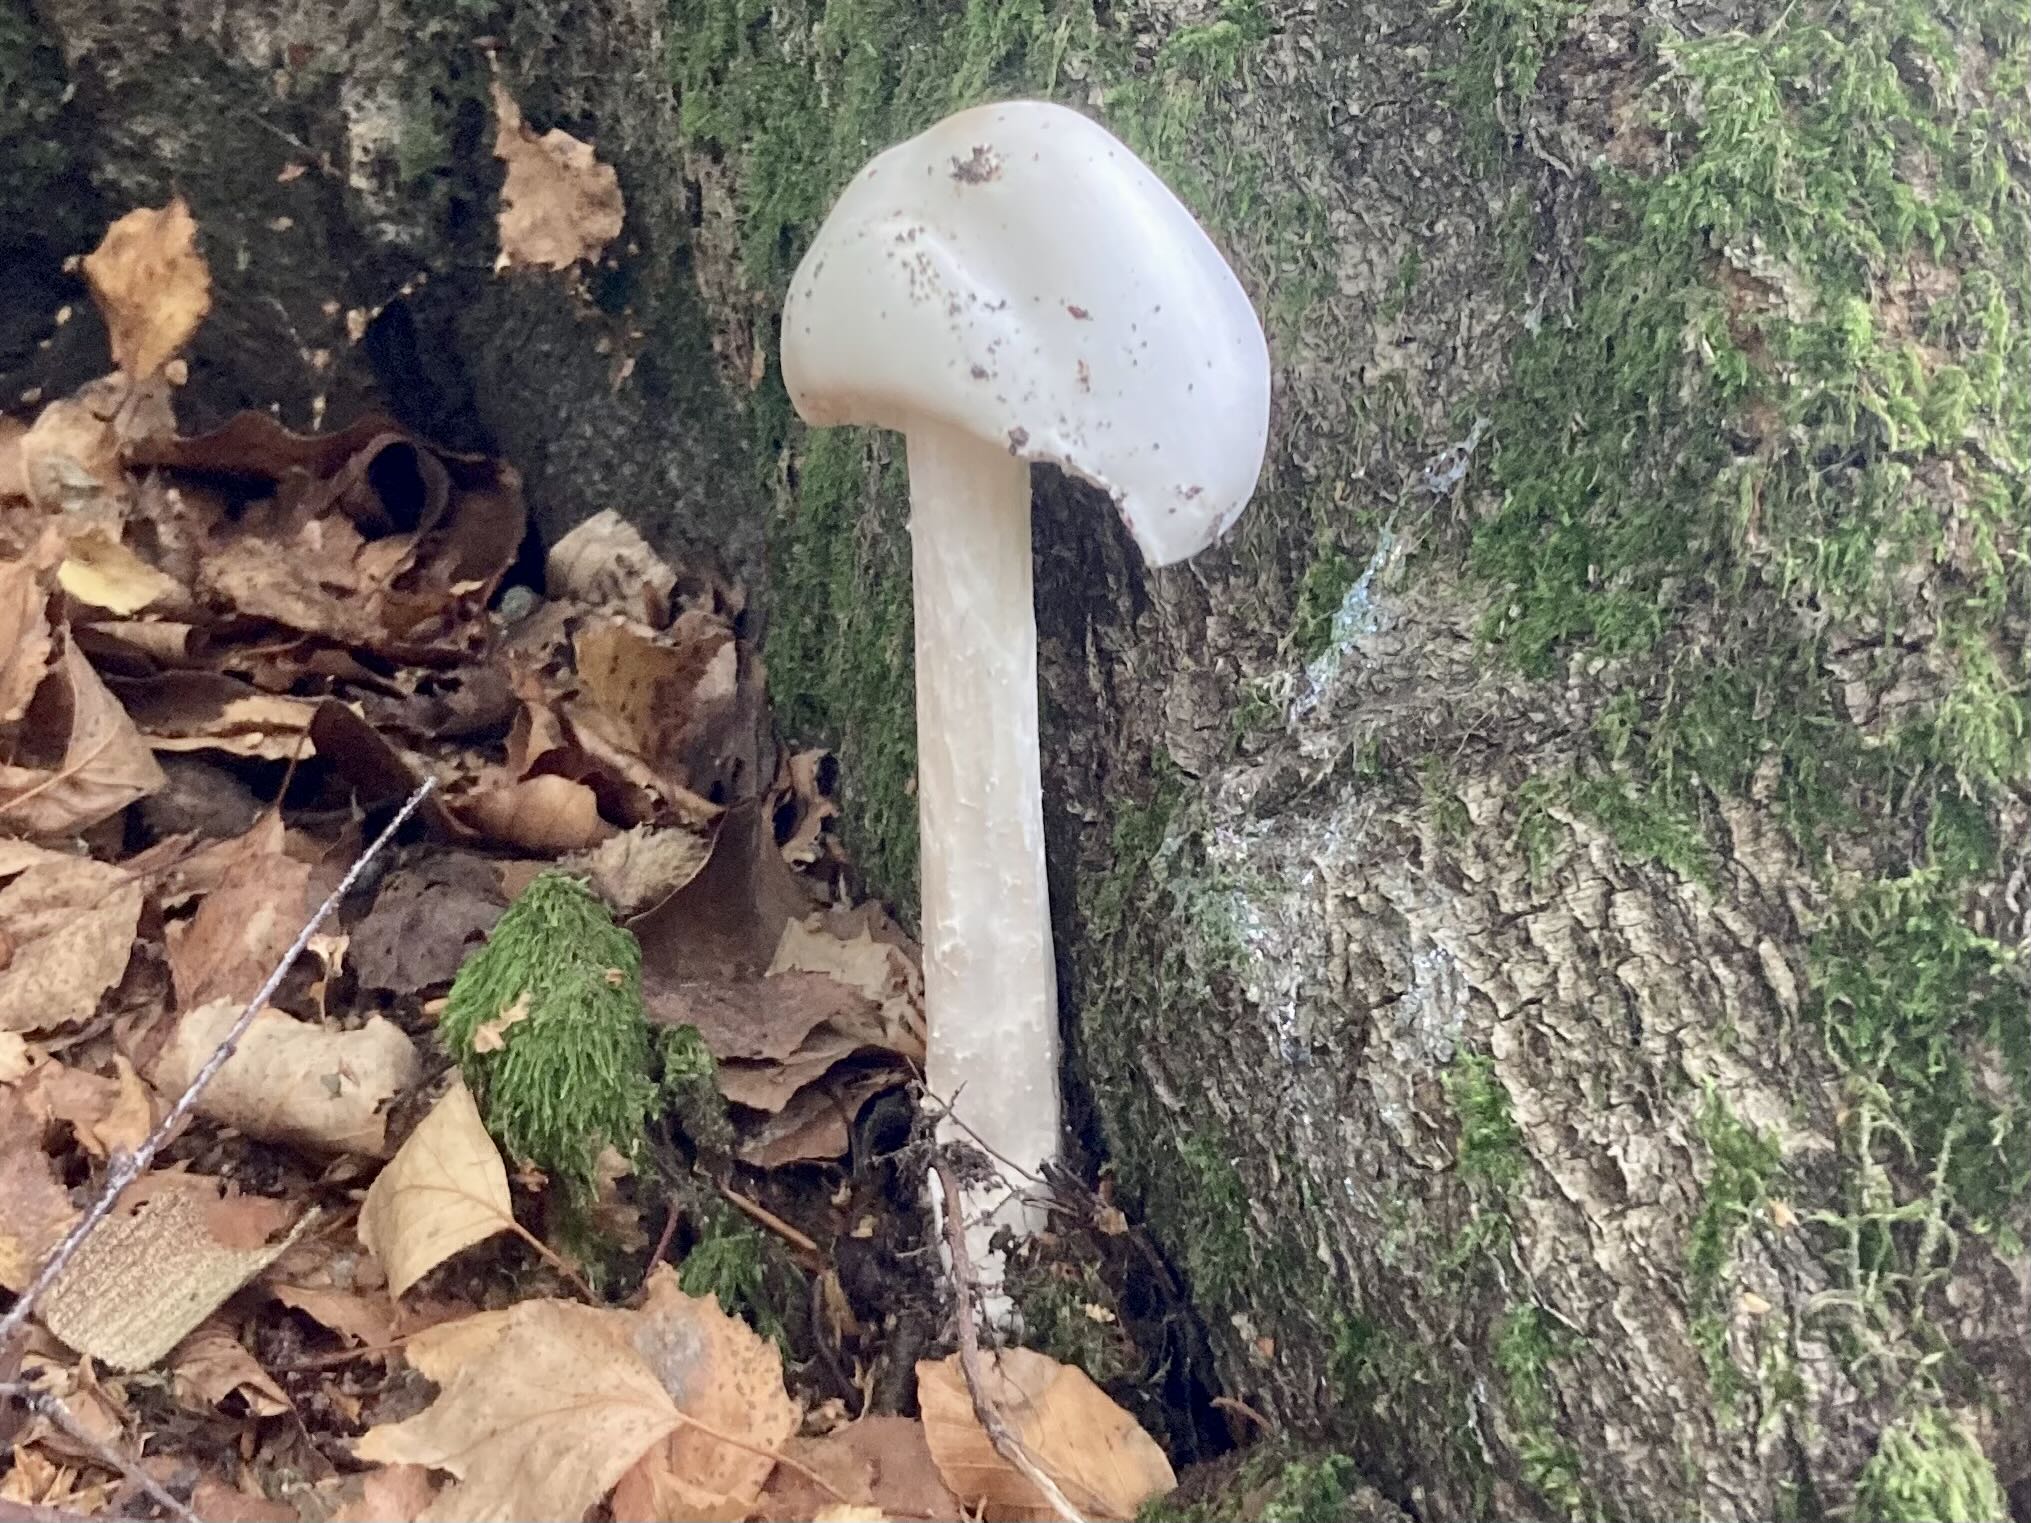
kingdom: Fungi
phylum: Basidiomycota
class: Agaricomycetes
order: Agaricales
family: Amanitaceae
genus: Amanita
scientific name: Amanita virosa
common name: snehvid fluesvamp
